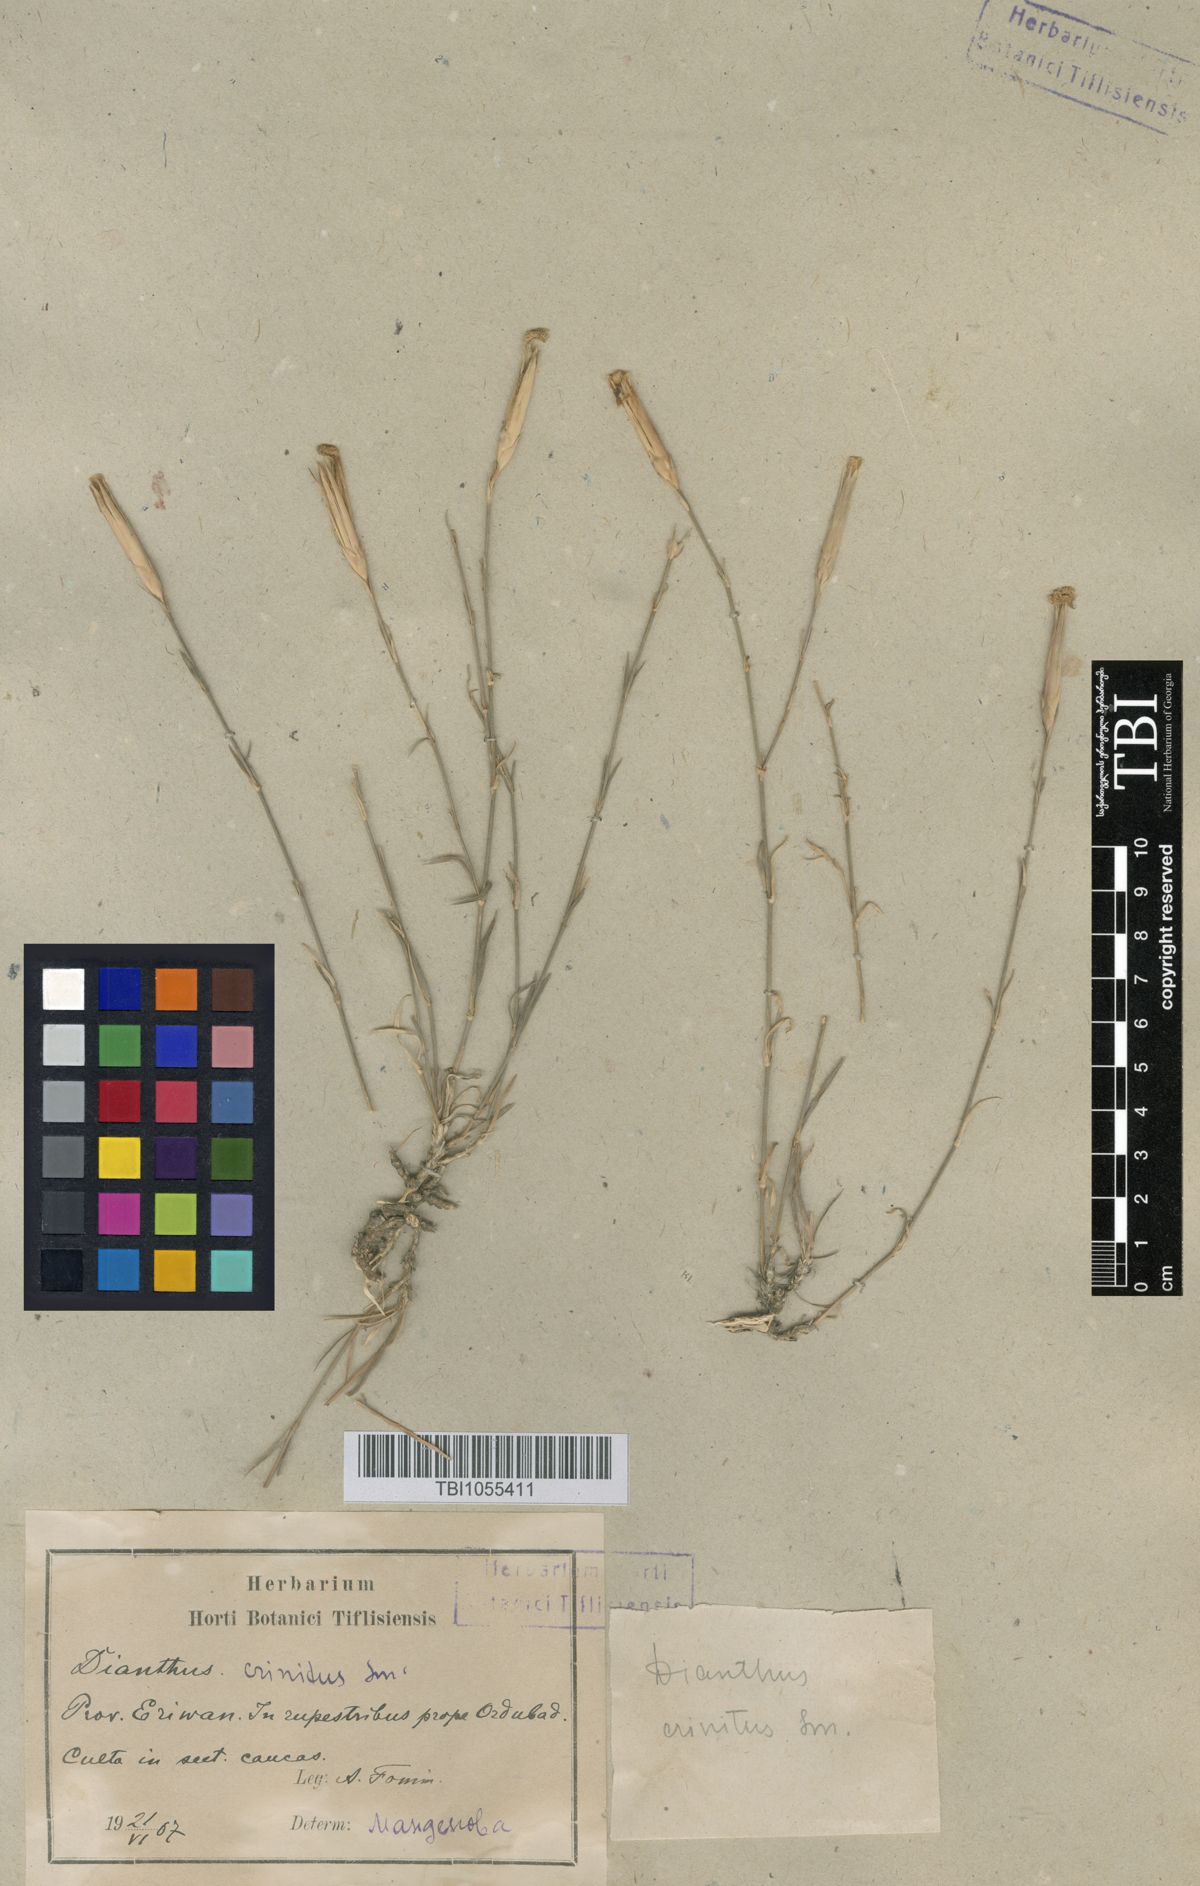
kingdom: Plantae
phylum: Tracheophyta
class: Magnoliopsida
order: Caryophyllales
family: Caryophyllaceae
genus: Dianthus
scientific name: Dianthus crinitus
